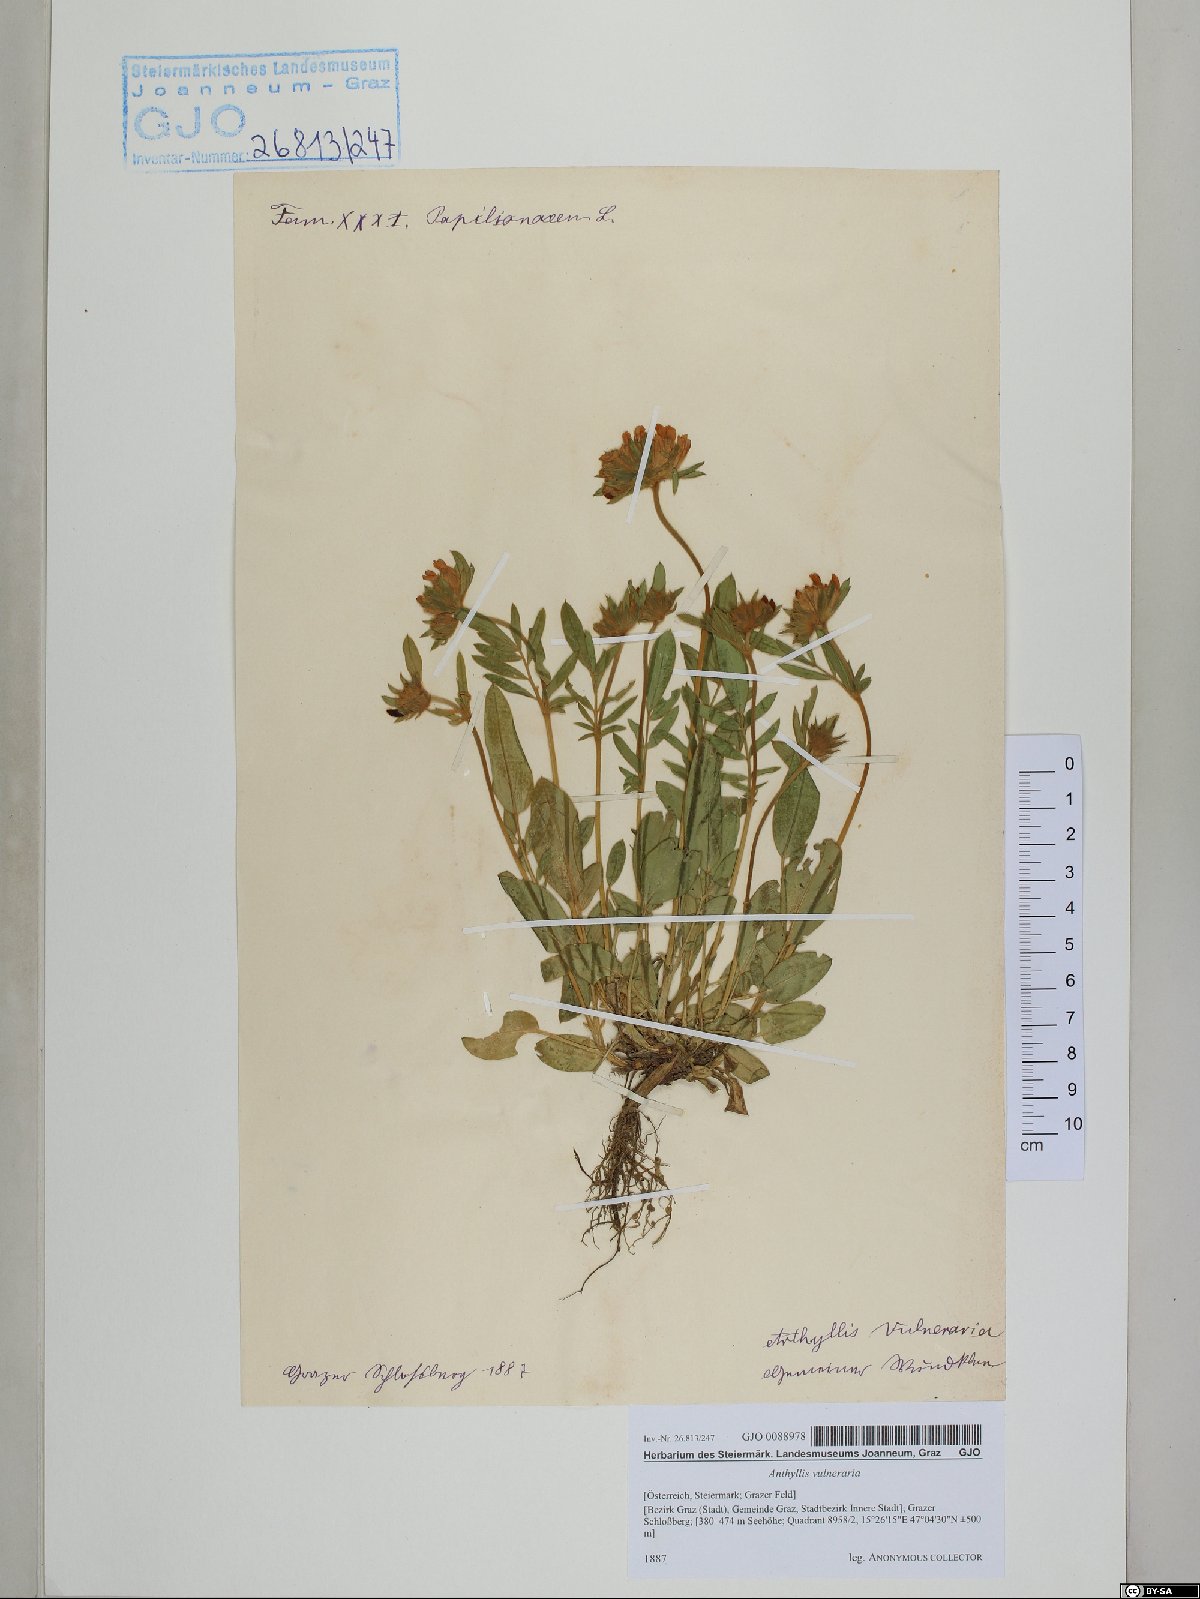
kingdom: Plantae
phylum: Tracheophyta
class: Magnoliopsida
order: Fabales
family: Fabaceae
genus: Anthyllis
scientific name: Anthyllis vulneraria
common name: Kidney vetch
